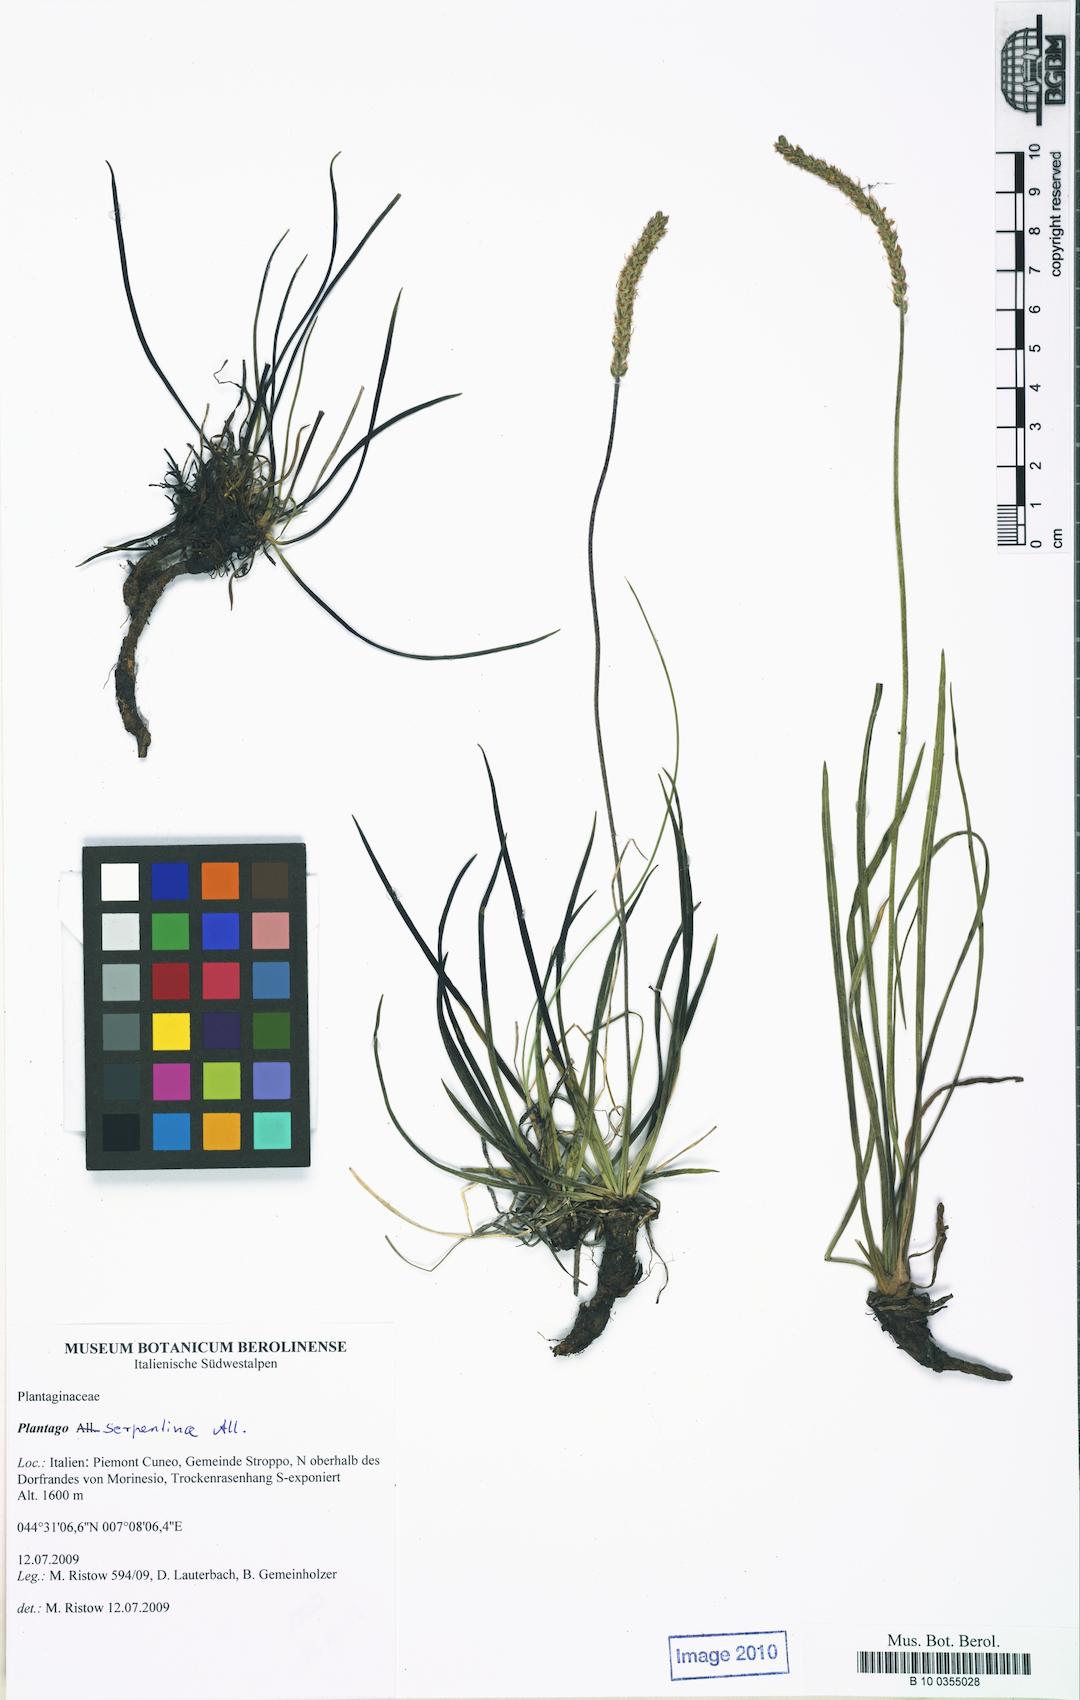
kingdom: Plantae
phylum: Tracheophyta
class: Magnoliopsida
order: Lamiales
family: Plantaginaceae
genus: Plantago
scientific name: Plantago strictissima
